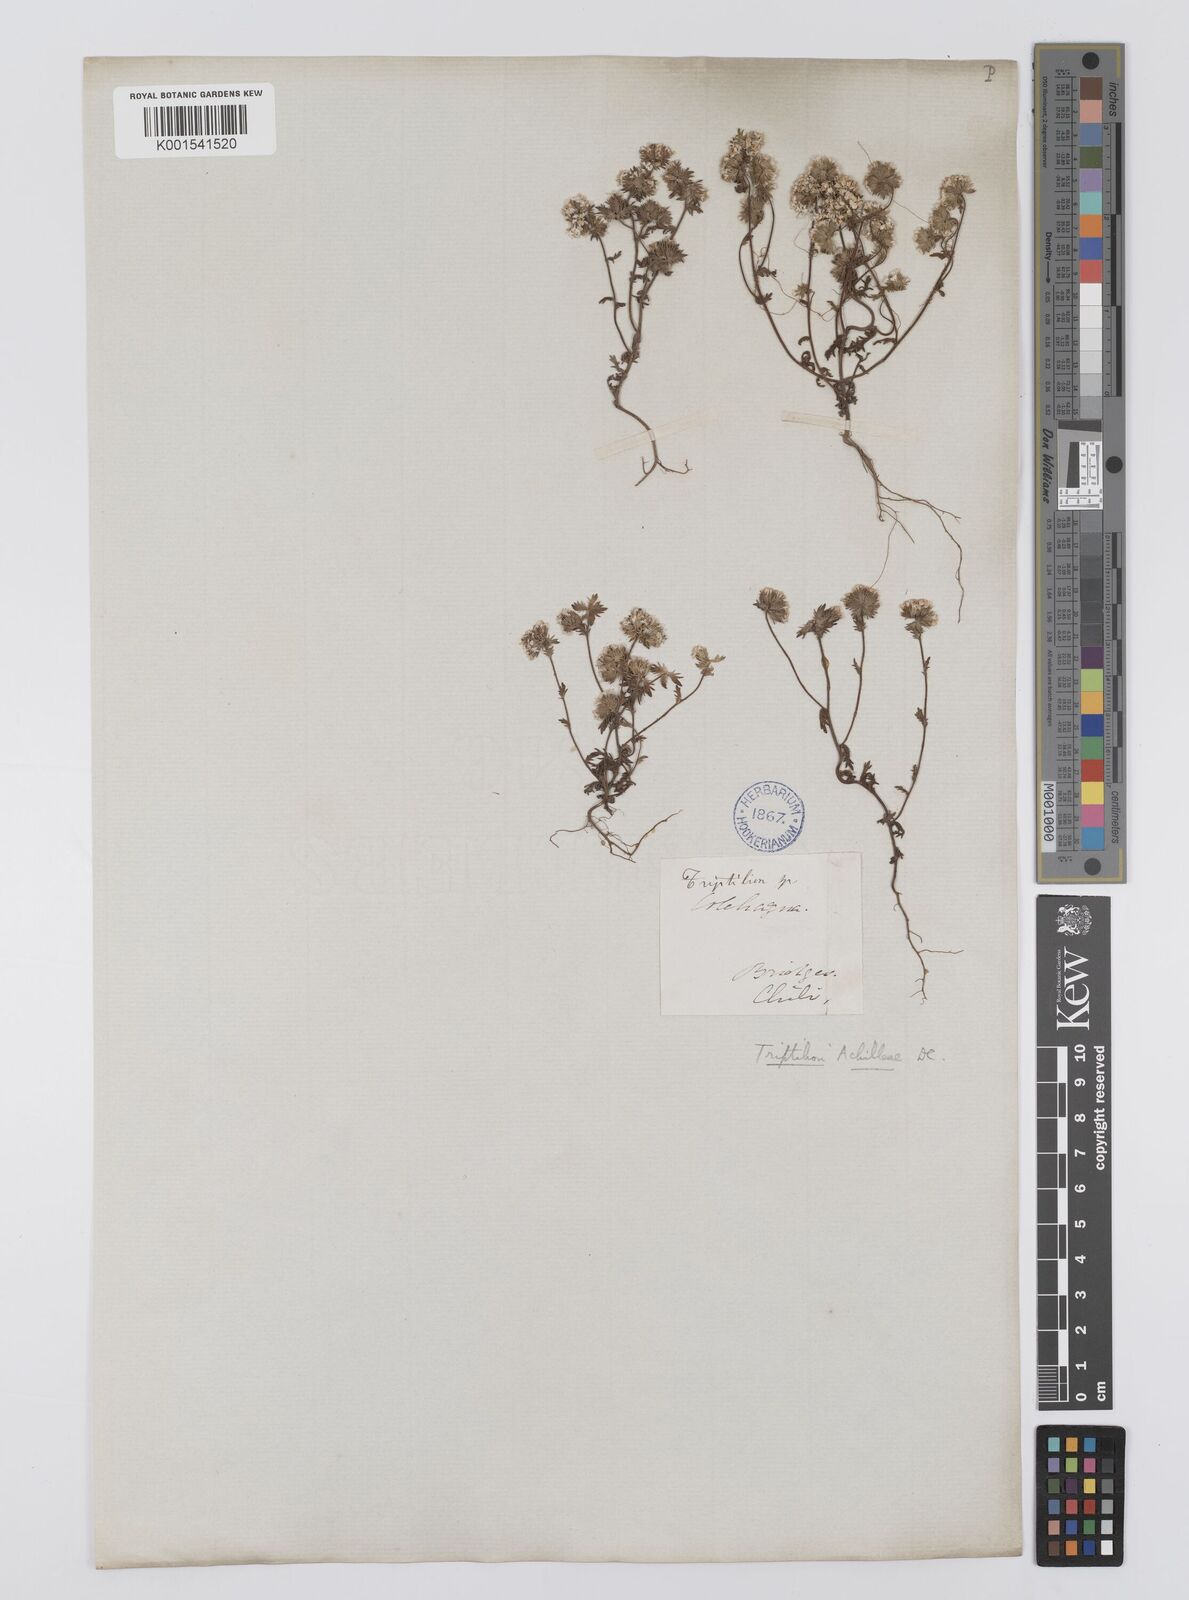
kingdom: Plantae
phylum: Tracheophyta
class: Magnoliopsida
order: Asterales
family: Asteraceae
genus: Triptilion
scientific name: Triptilion achilleae
